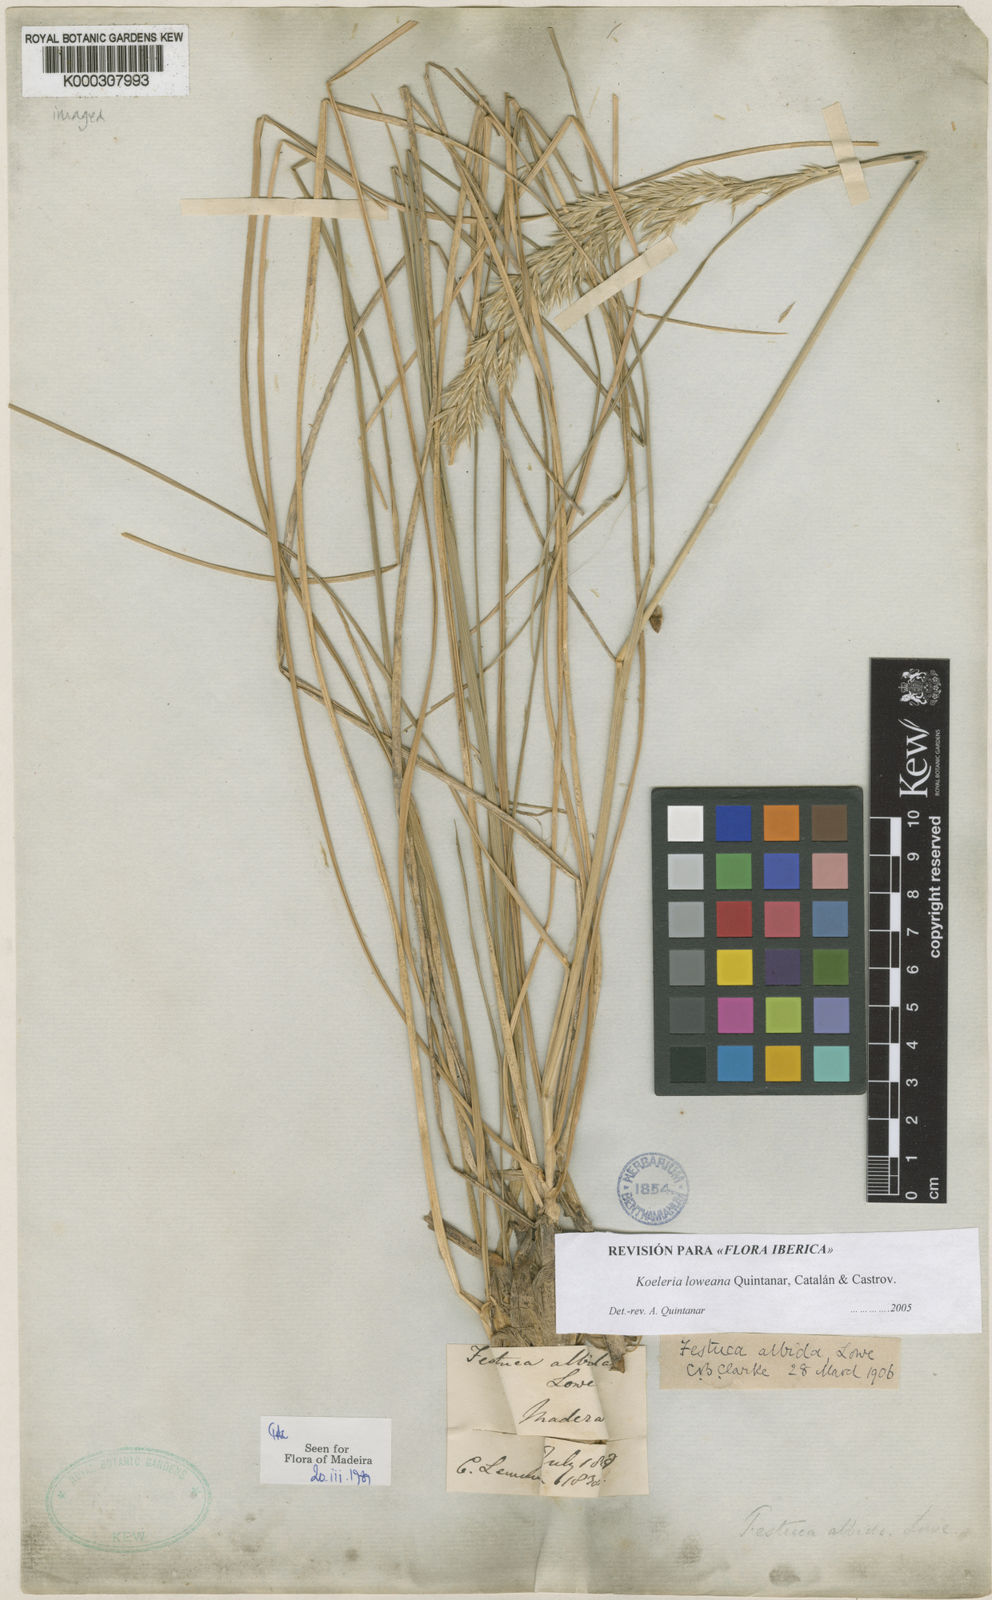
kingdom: Plantae
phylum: Tracheophyta
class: Liliopsida
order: Poales
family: Poaceae
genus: Koeleria
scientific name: Koeleria
